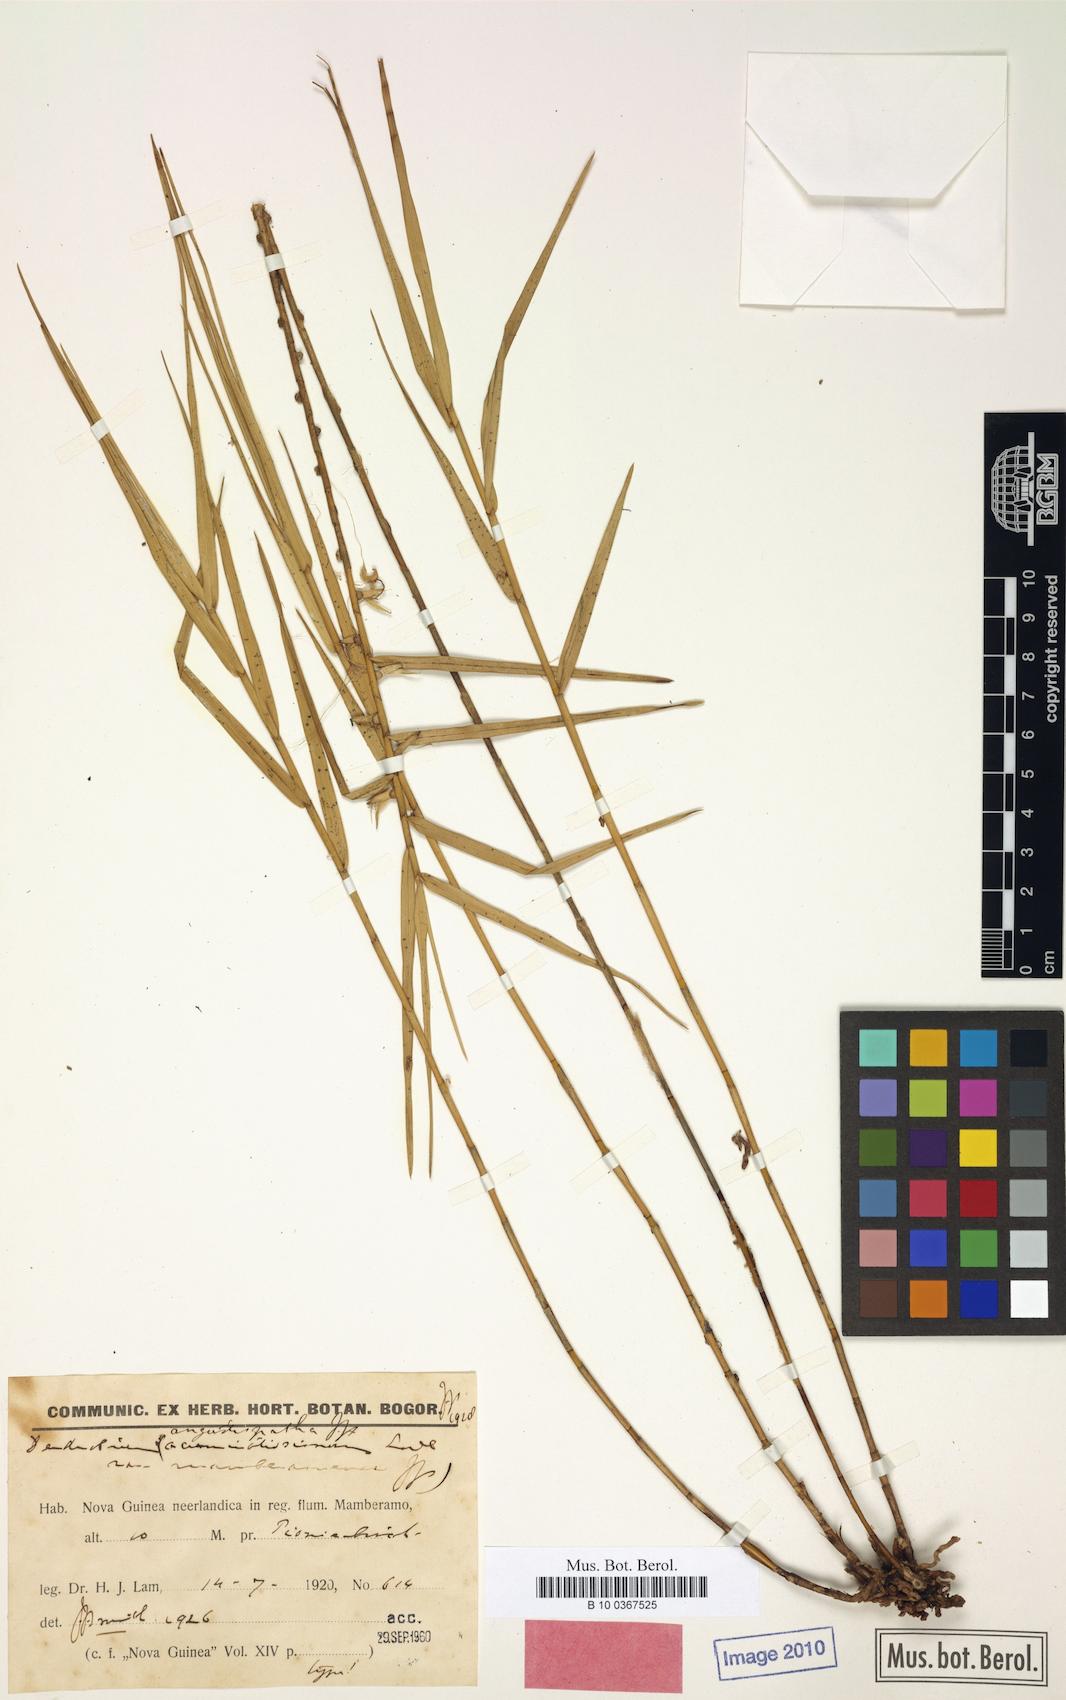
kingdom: Plantae
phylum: Tracheophyta
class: Liliopsida
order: Asparagales
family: Orchidaceae
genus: Dendrobium
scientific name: Dendrobium angustispathum
